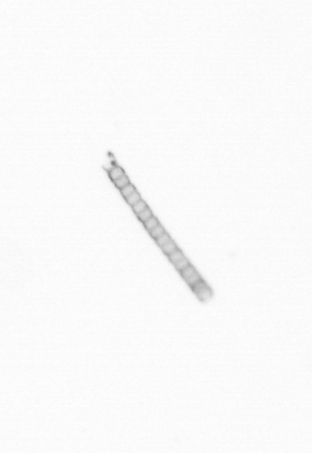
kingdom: Chromista
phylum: Ochrophyta
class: Bacillariophyceae
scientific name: Bacillariophyceae
